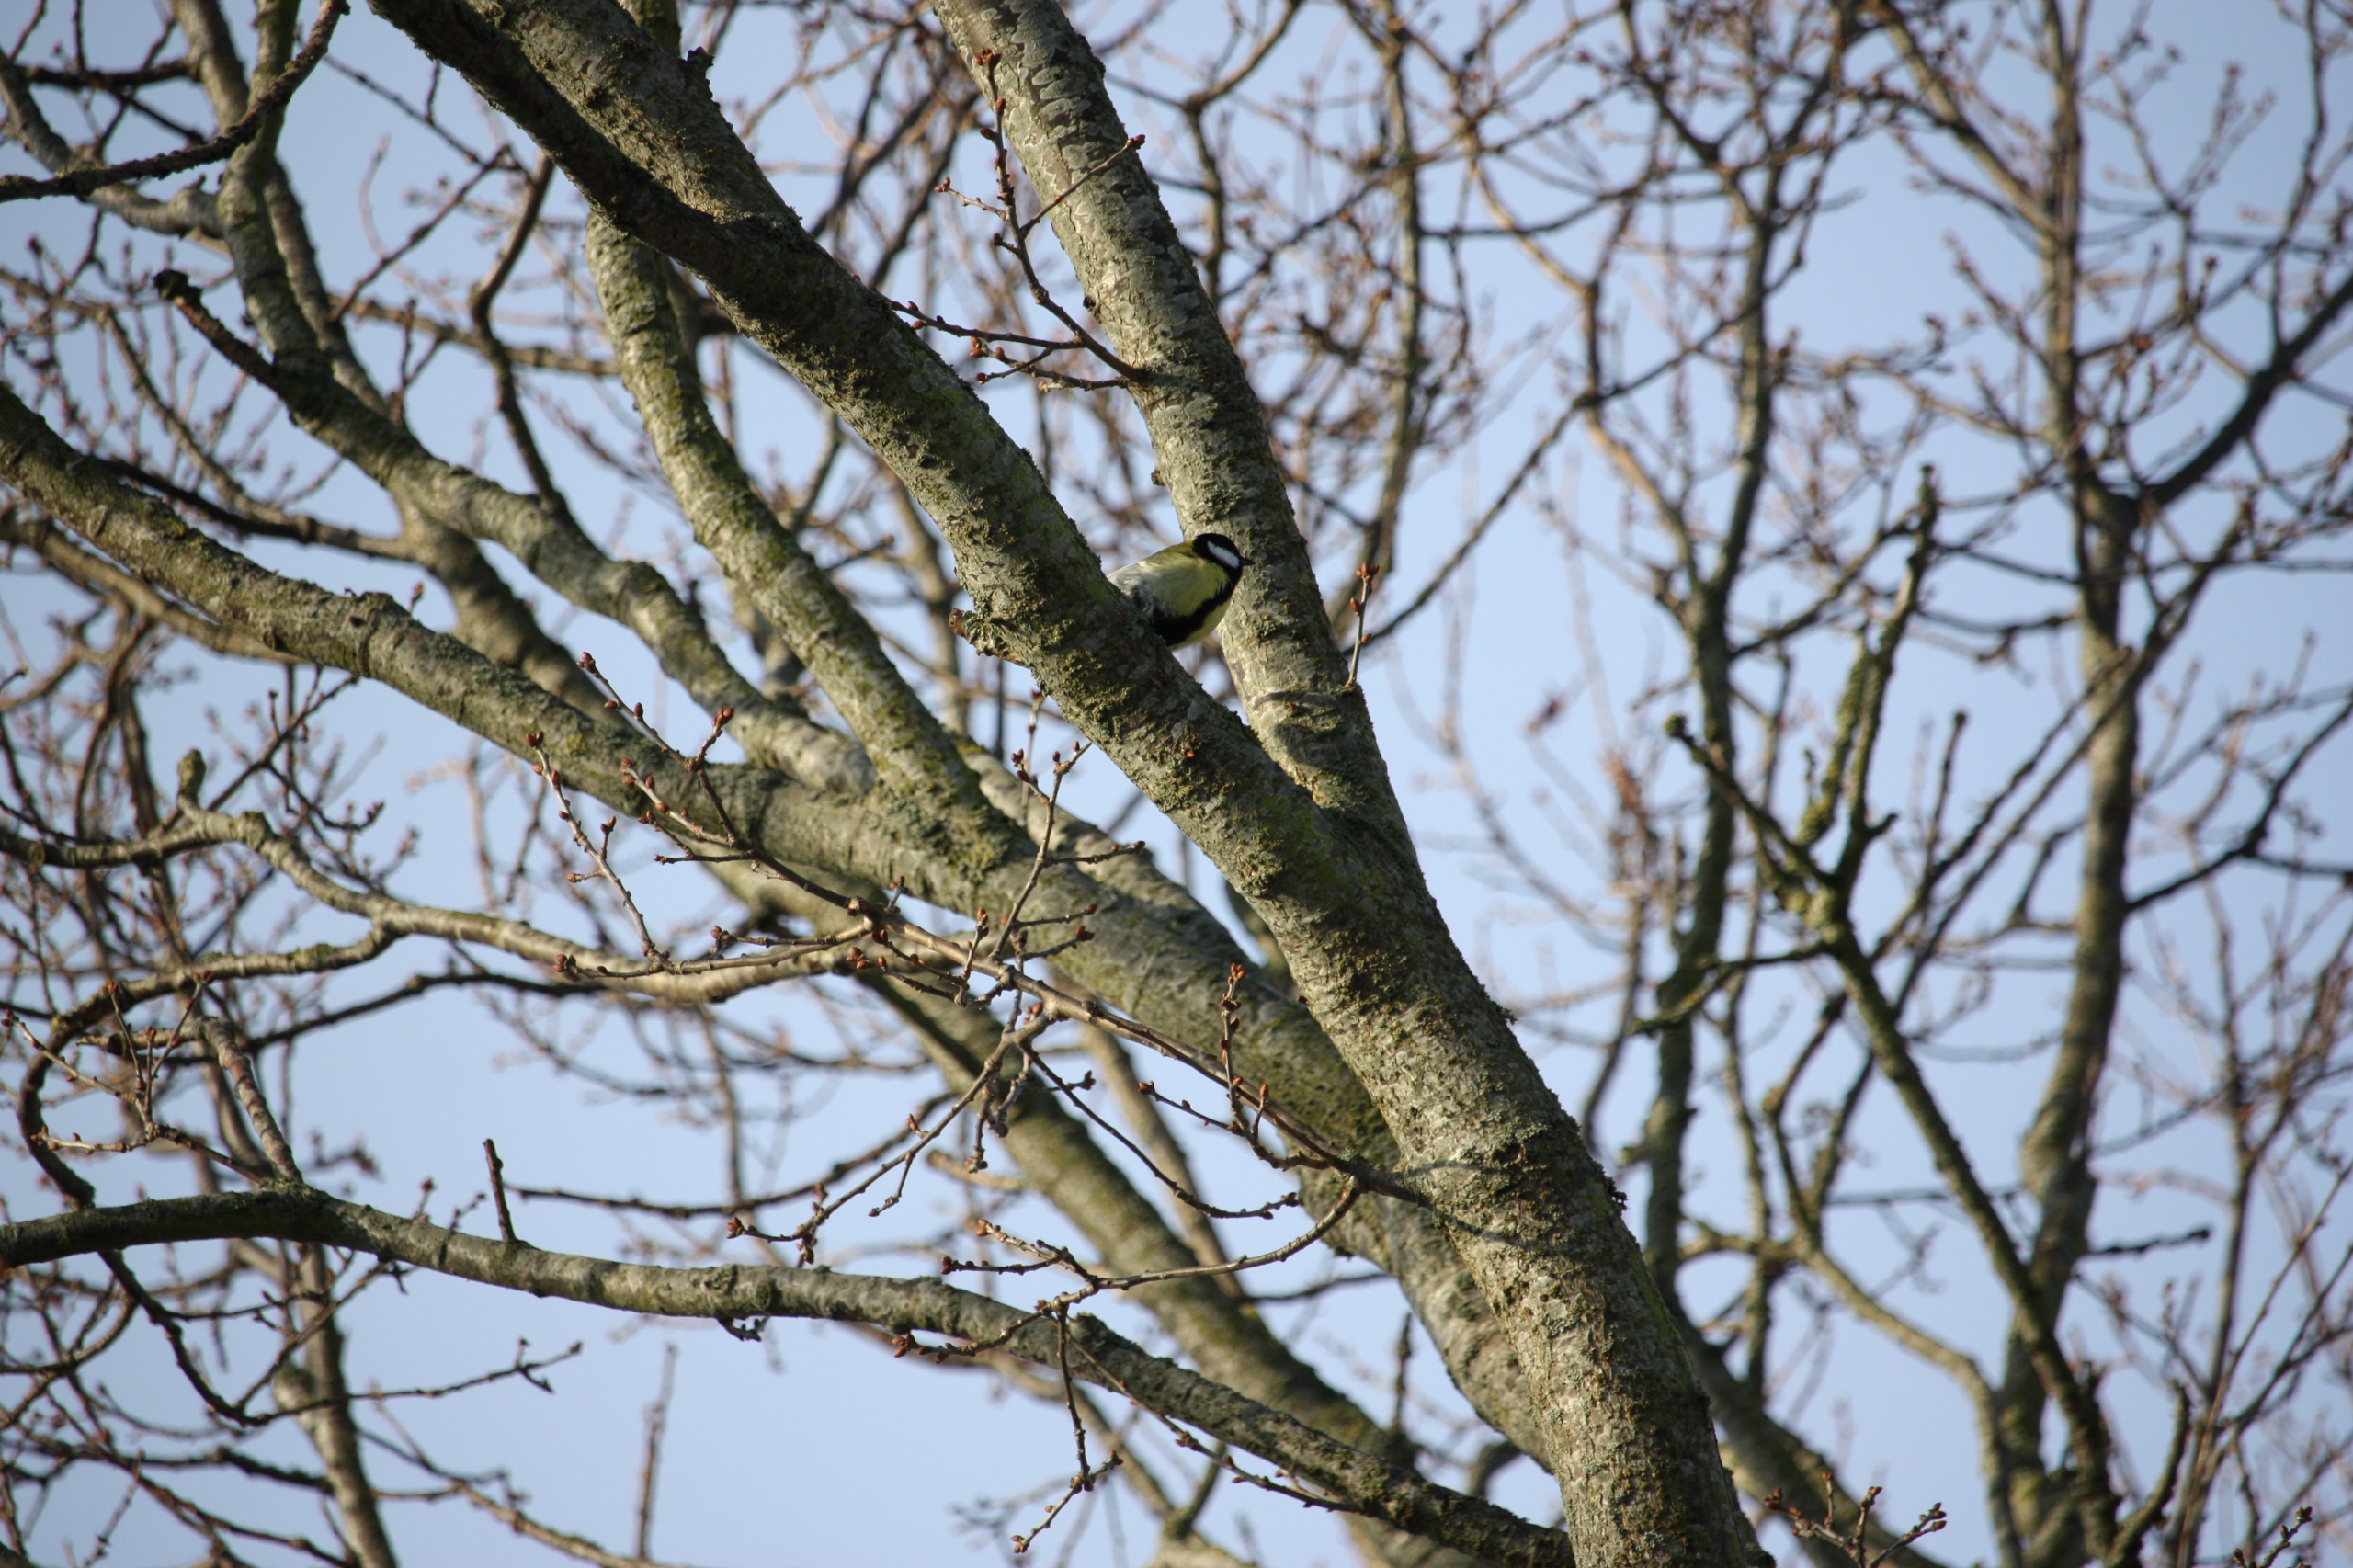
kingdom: Animalia
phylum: Chordata
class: Aves
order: Passeriformes
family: Paridae
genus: Parus
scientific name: Parus major
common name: Musvit
